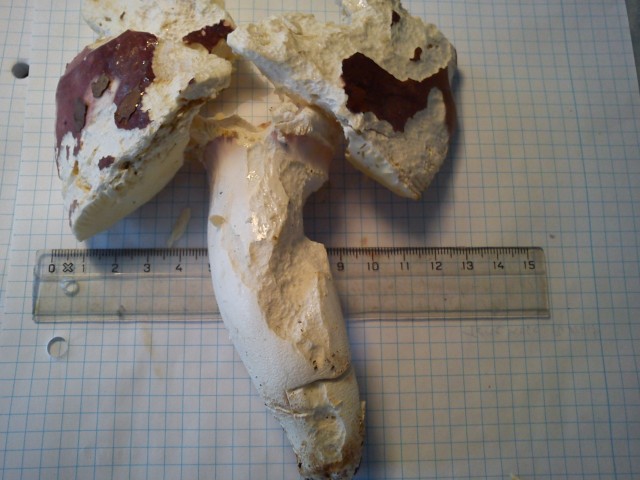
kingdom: Fungi
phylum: Basidiomycota
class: Agaricomycetes
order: Russulales
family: Russulaceae
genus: Russula
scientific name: Russula olivacea
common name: stor skørhat
